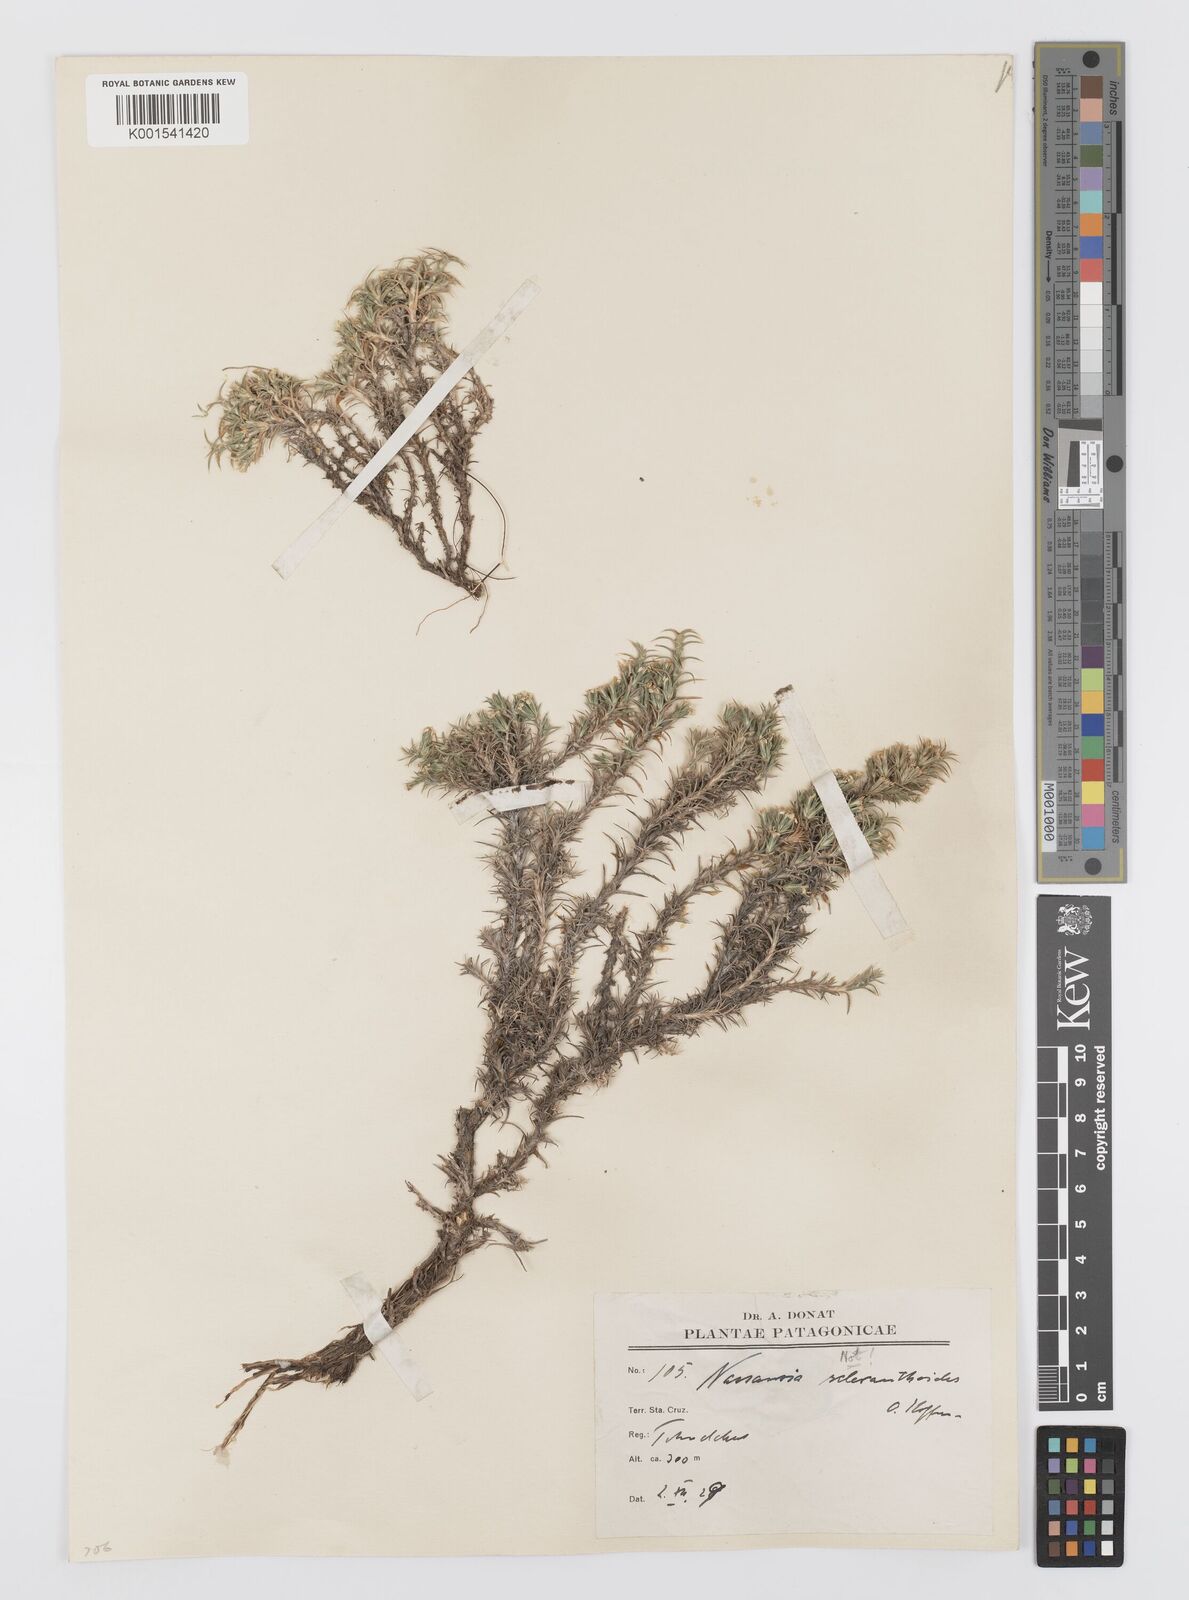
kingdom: Plantae
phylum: Tracheophyta
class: Magnoliopsida
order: Asterales
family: Asteraceae
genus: Nassauvia
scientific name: Nassauvia ulicina
